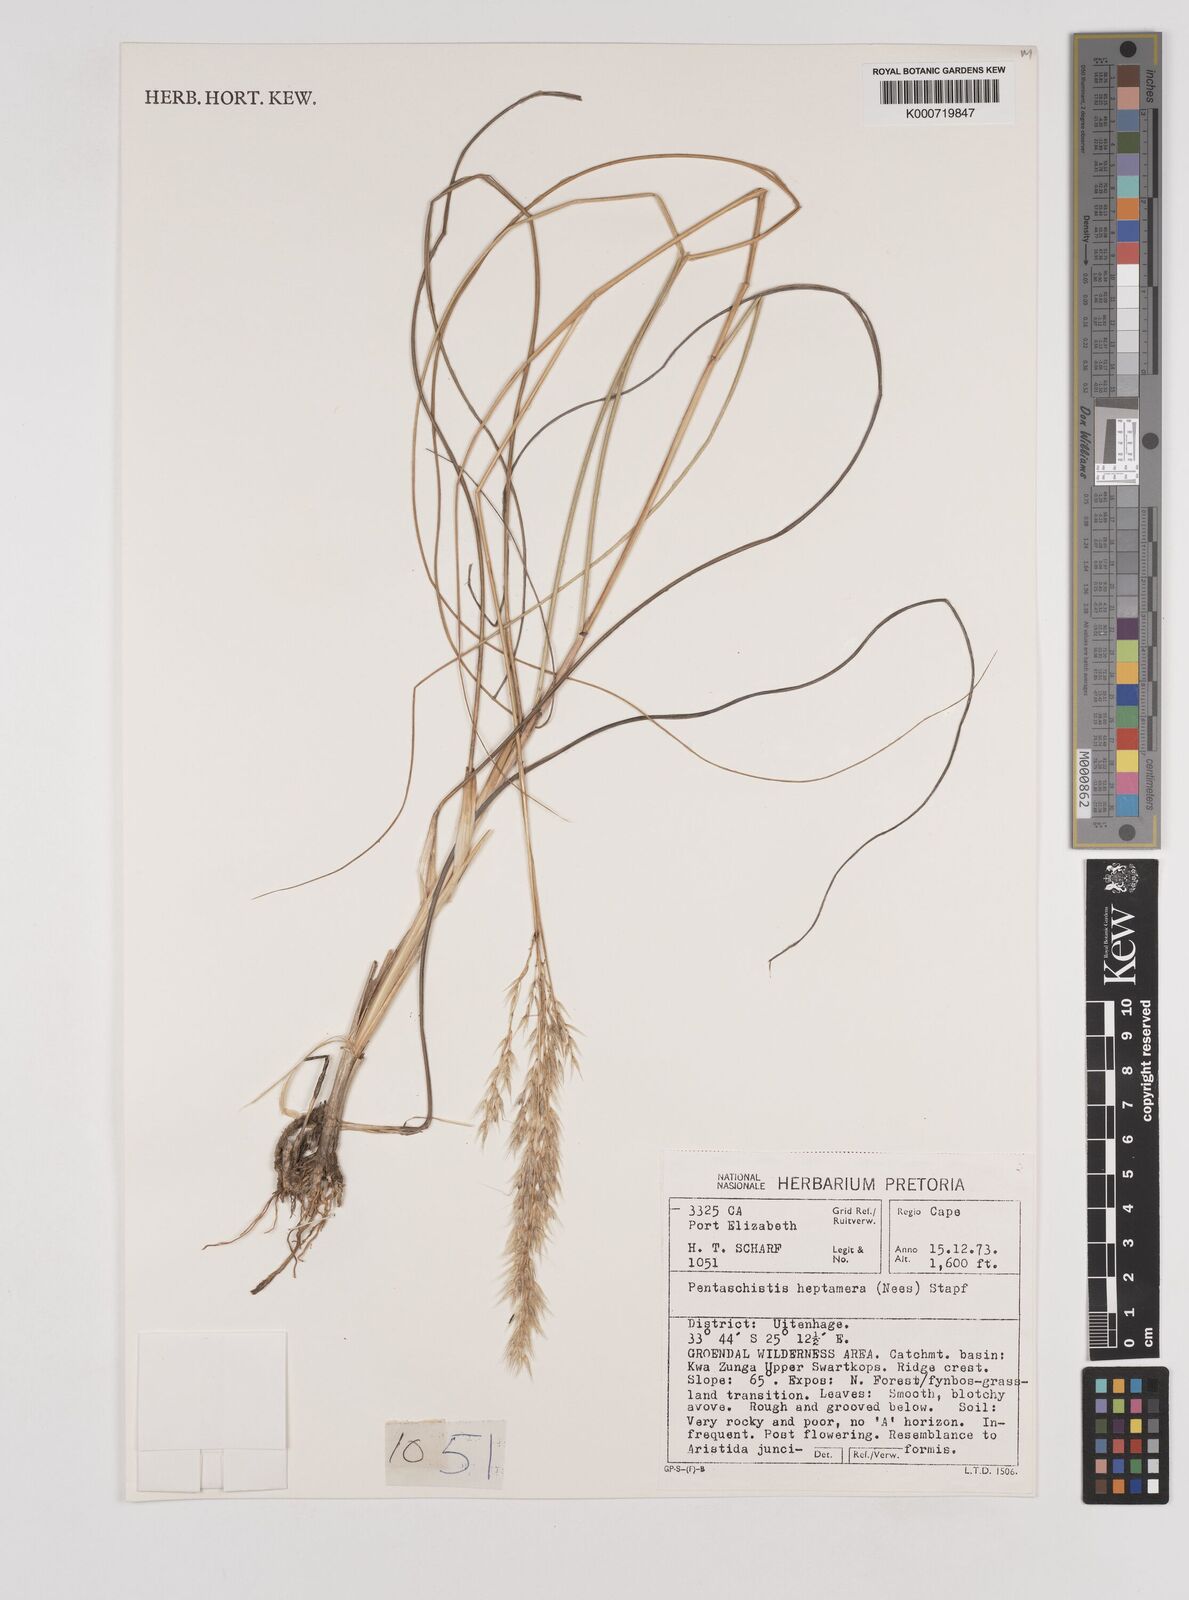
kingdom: Plantae
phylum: Tracheophyta
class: Liliopsida
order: Poales
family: Poaceae
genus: Pentaschistis
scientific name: Pentaschistis
